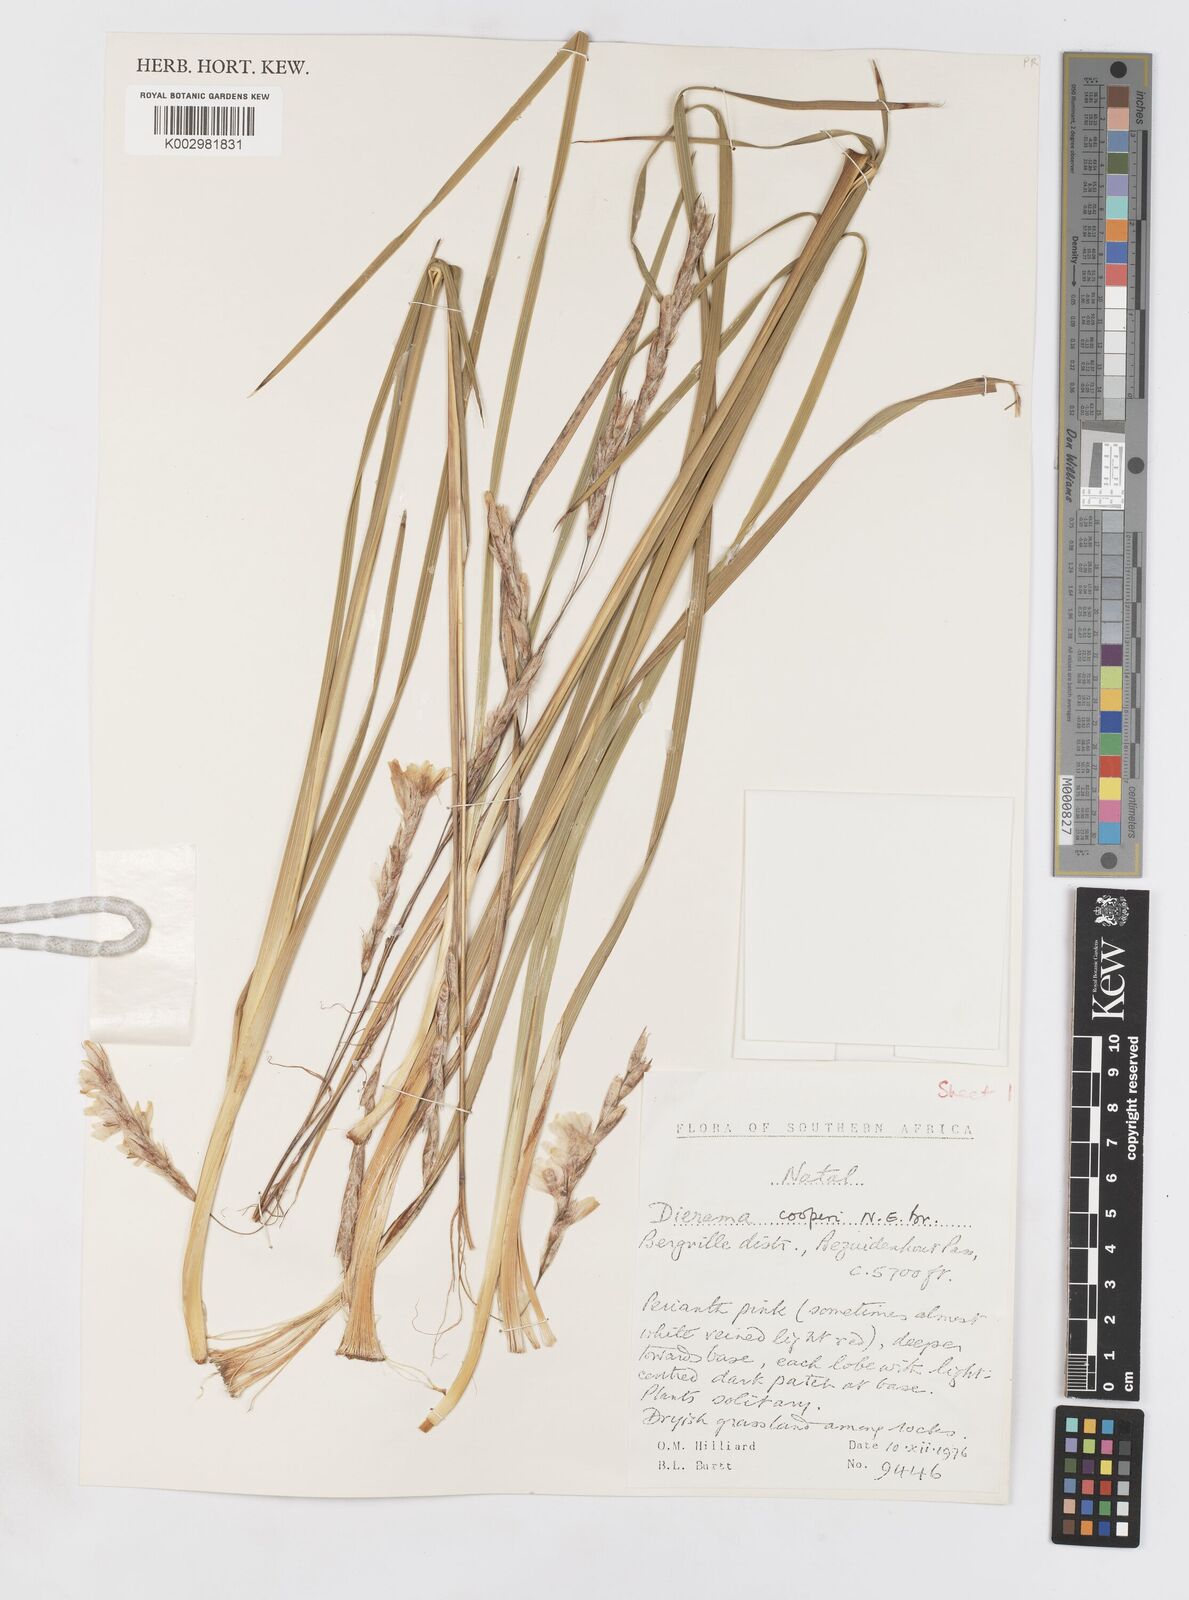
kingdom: Plantae
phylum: Tracheophyta
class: Liliopsida
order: Asparagales
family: Iridaceae
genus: Dierama
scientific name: Dierama cooperi
